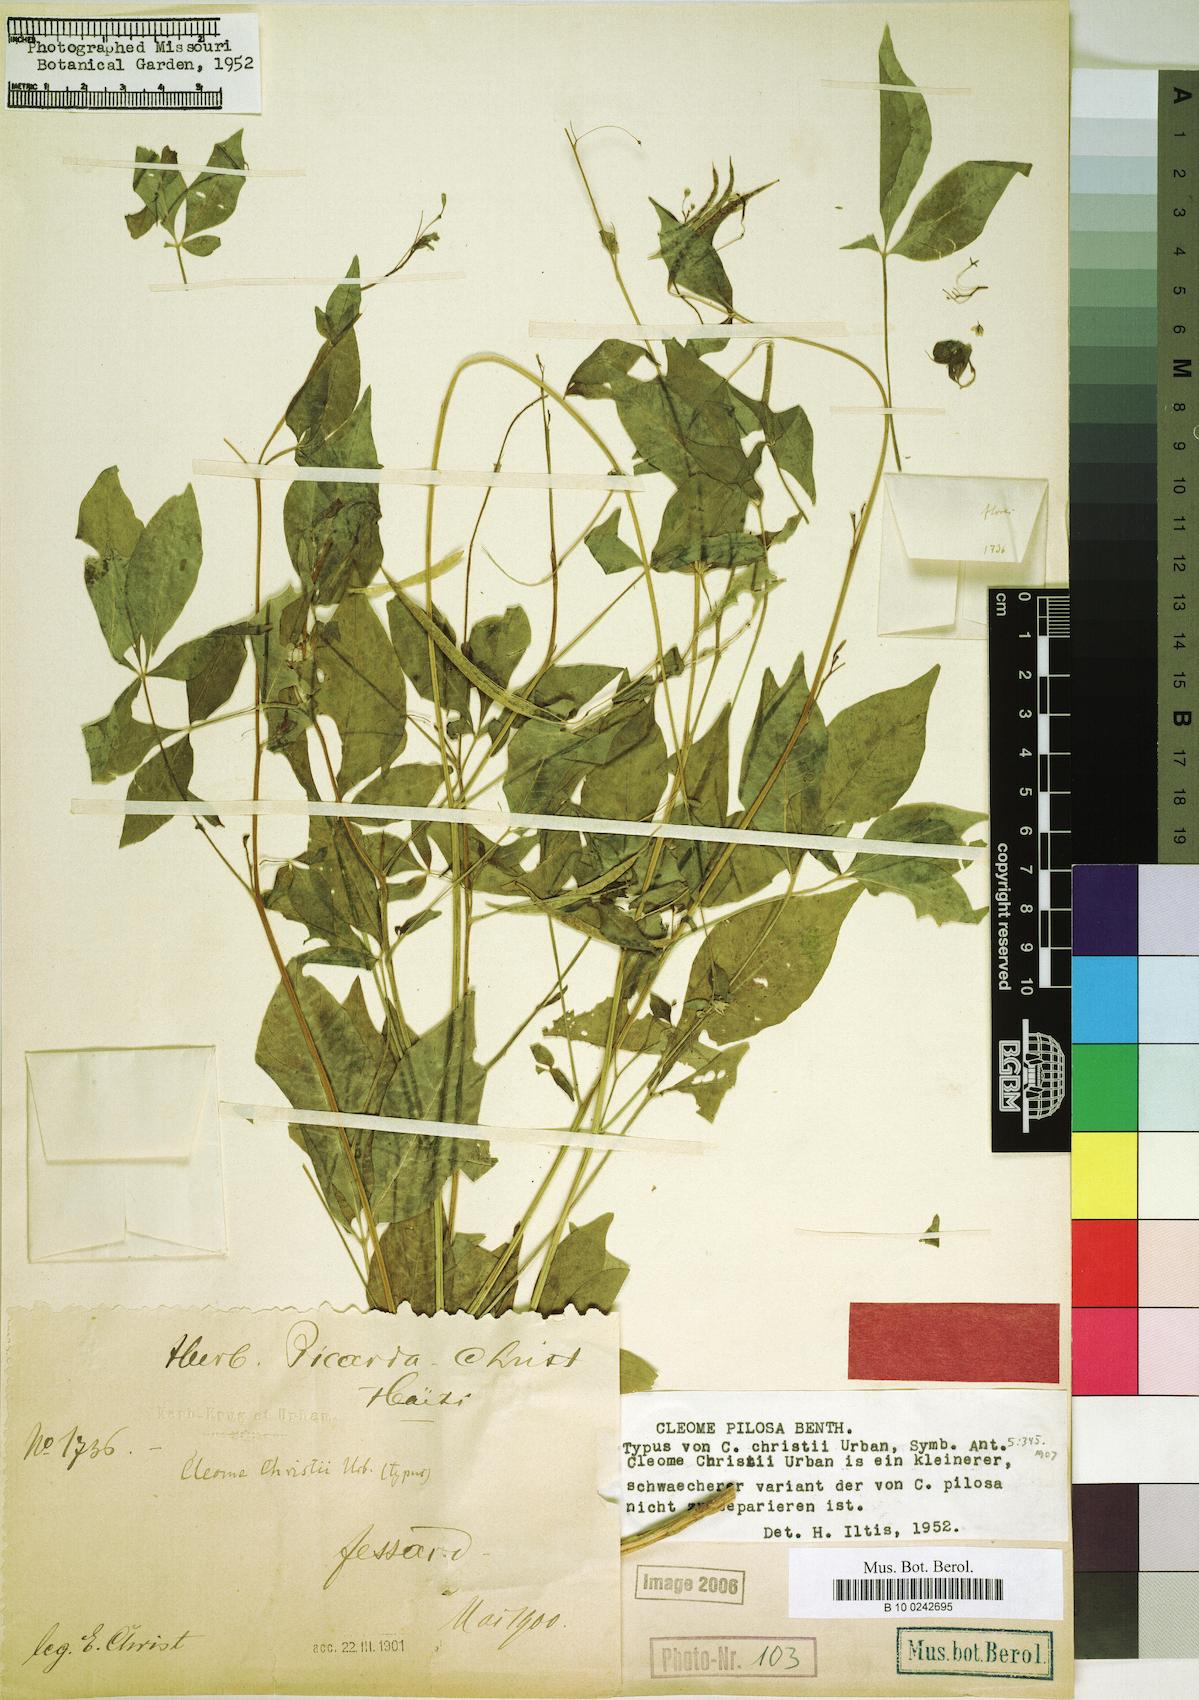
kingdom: Plantae
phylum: Tracheophyta
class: Magnoliopsida
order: Brassicales
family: Cleomaceae
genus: Cochranella
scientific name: Cochranella pilosa
